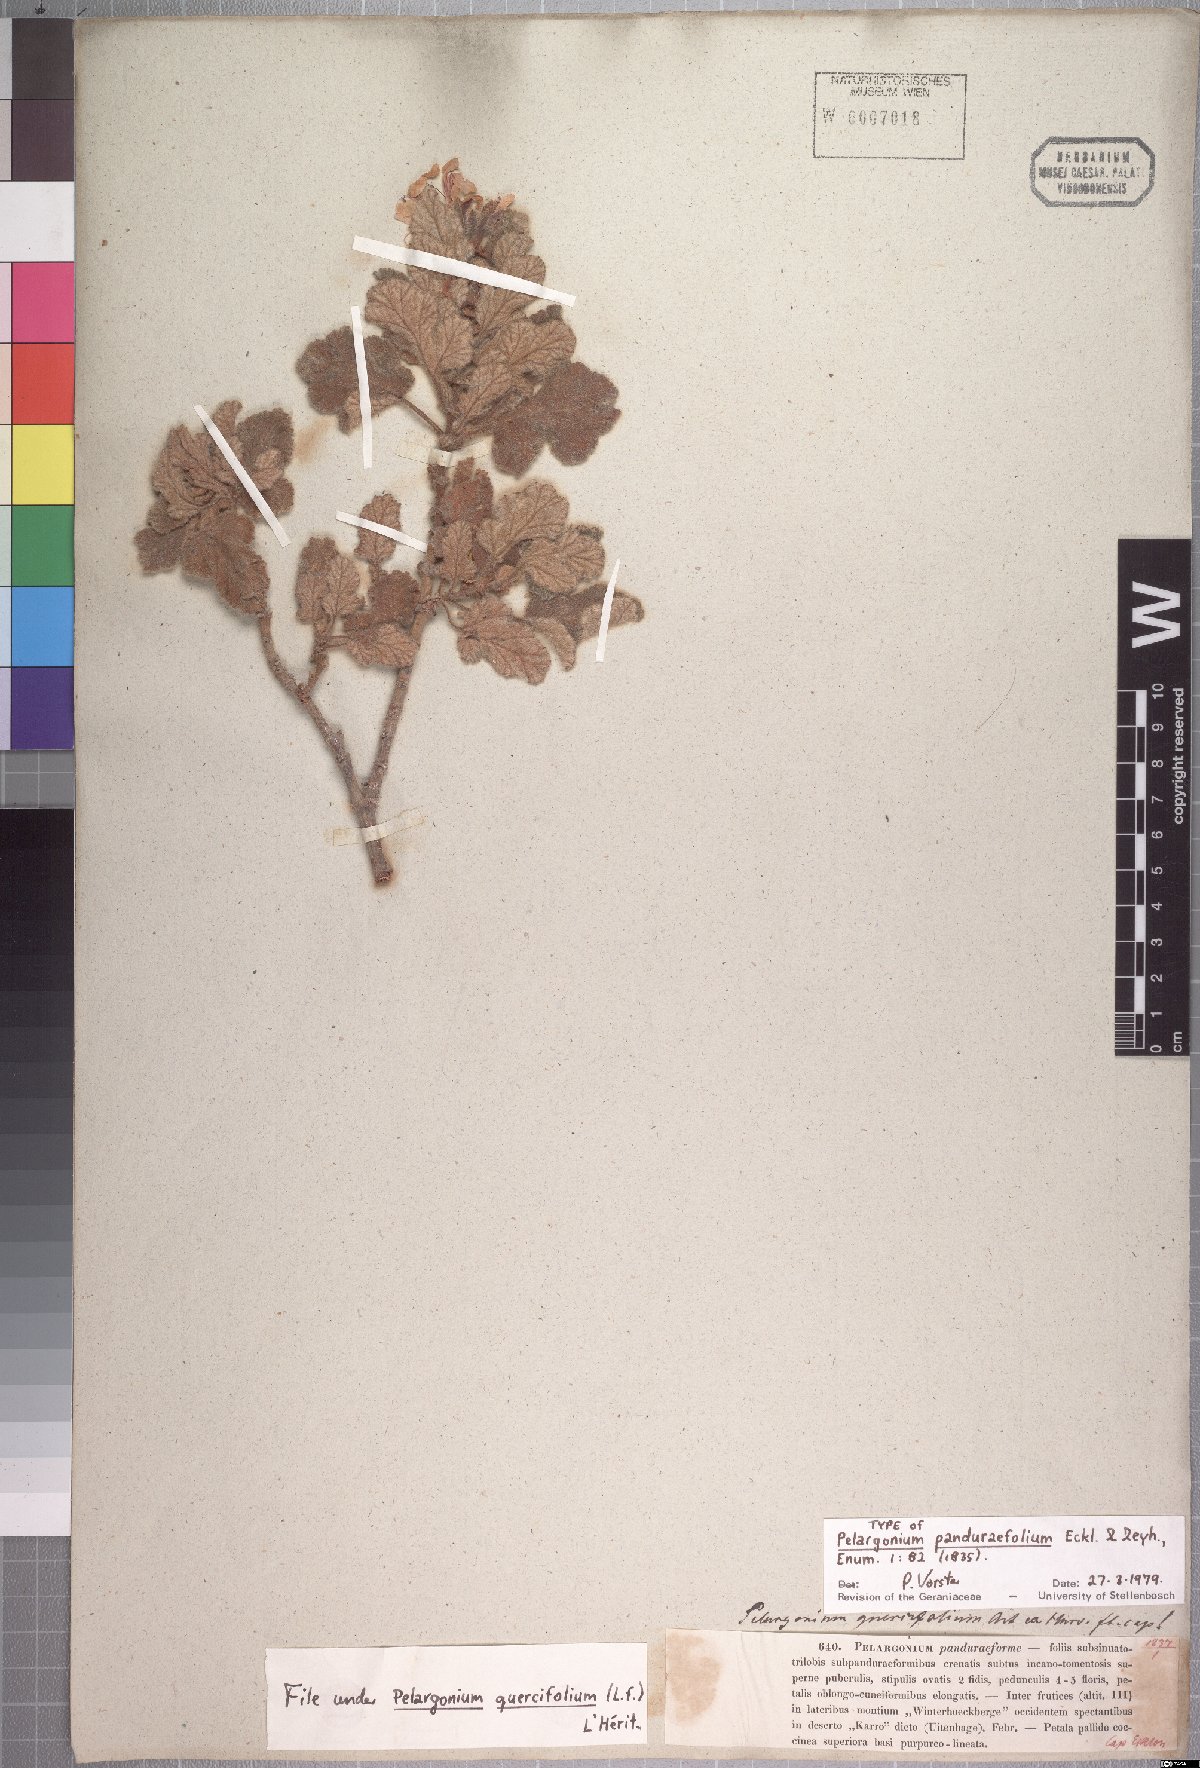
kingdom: Plantae
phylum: Tracheophyta
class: Magnoliopsida
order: Geraniales
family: Geraniaceae
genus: Pelargonium
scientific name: Pelargonium quercifolium
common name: Oakleaf geranium
